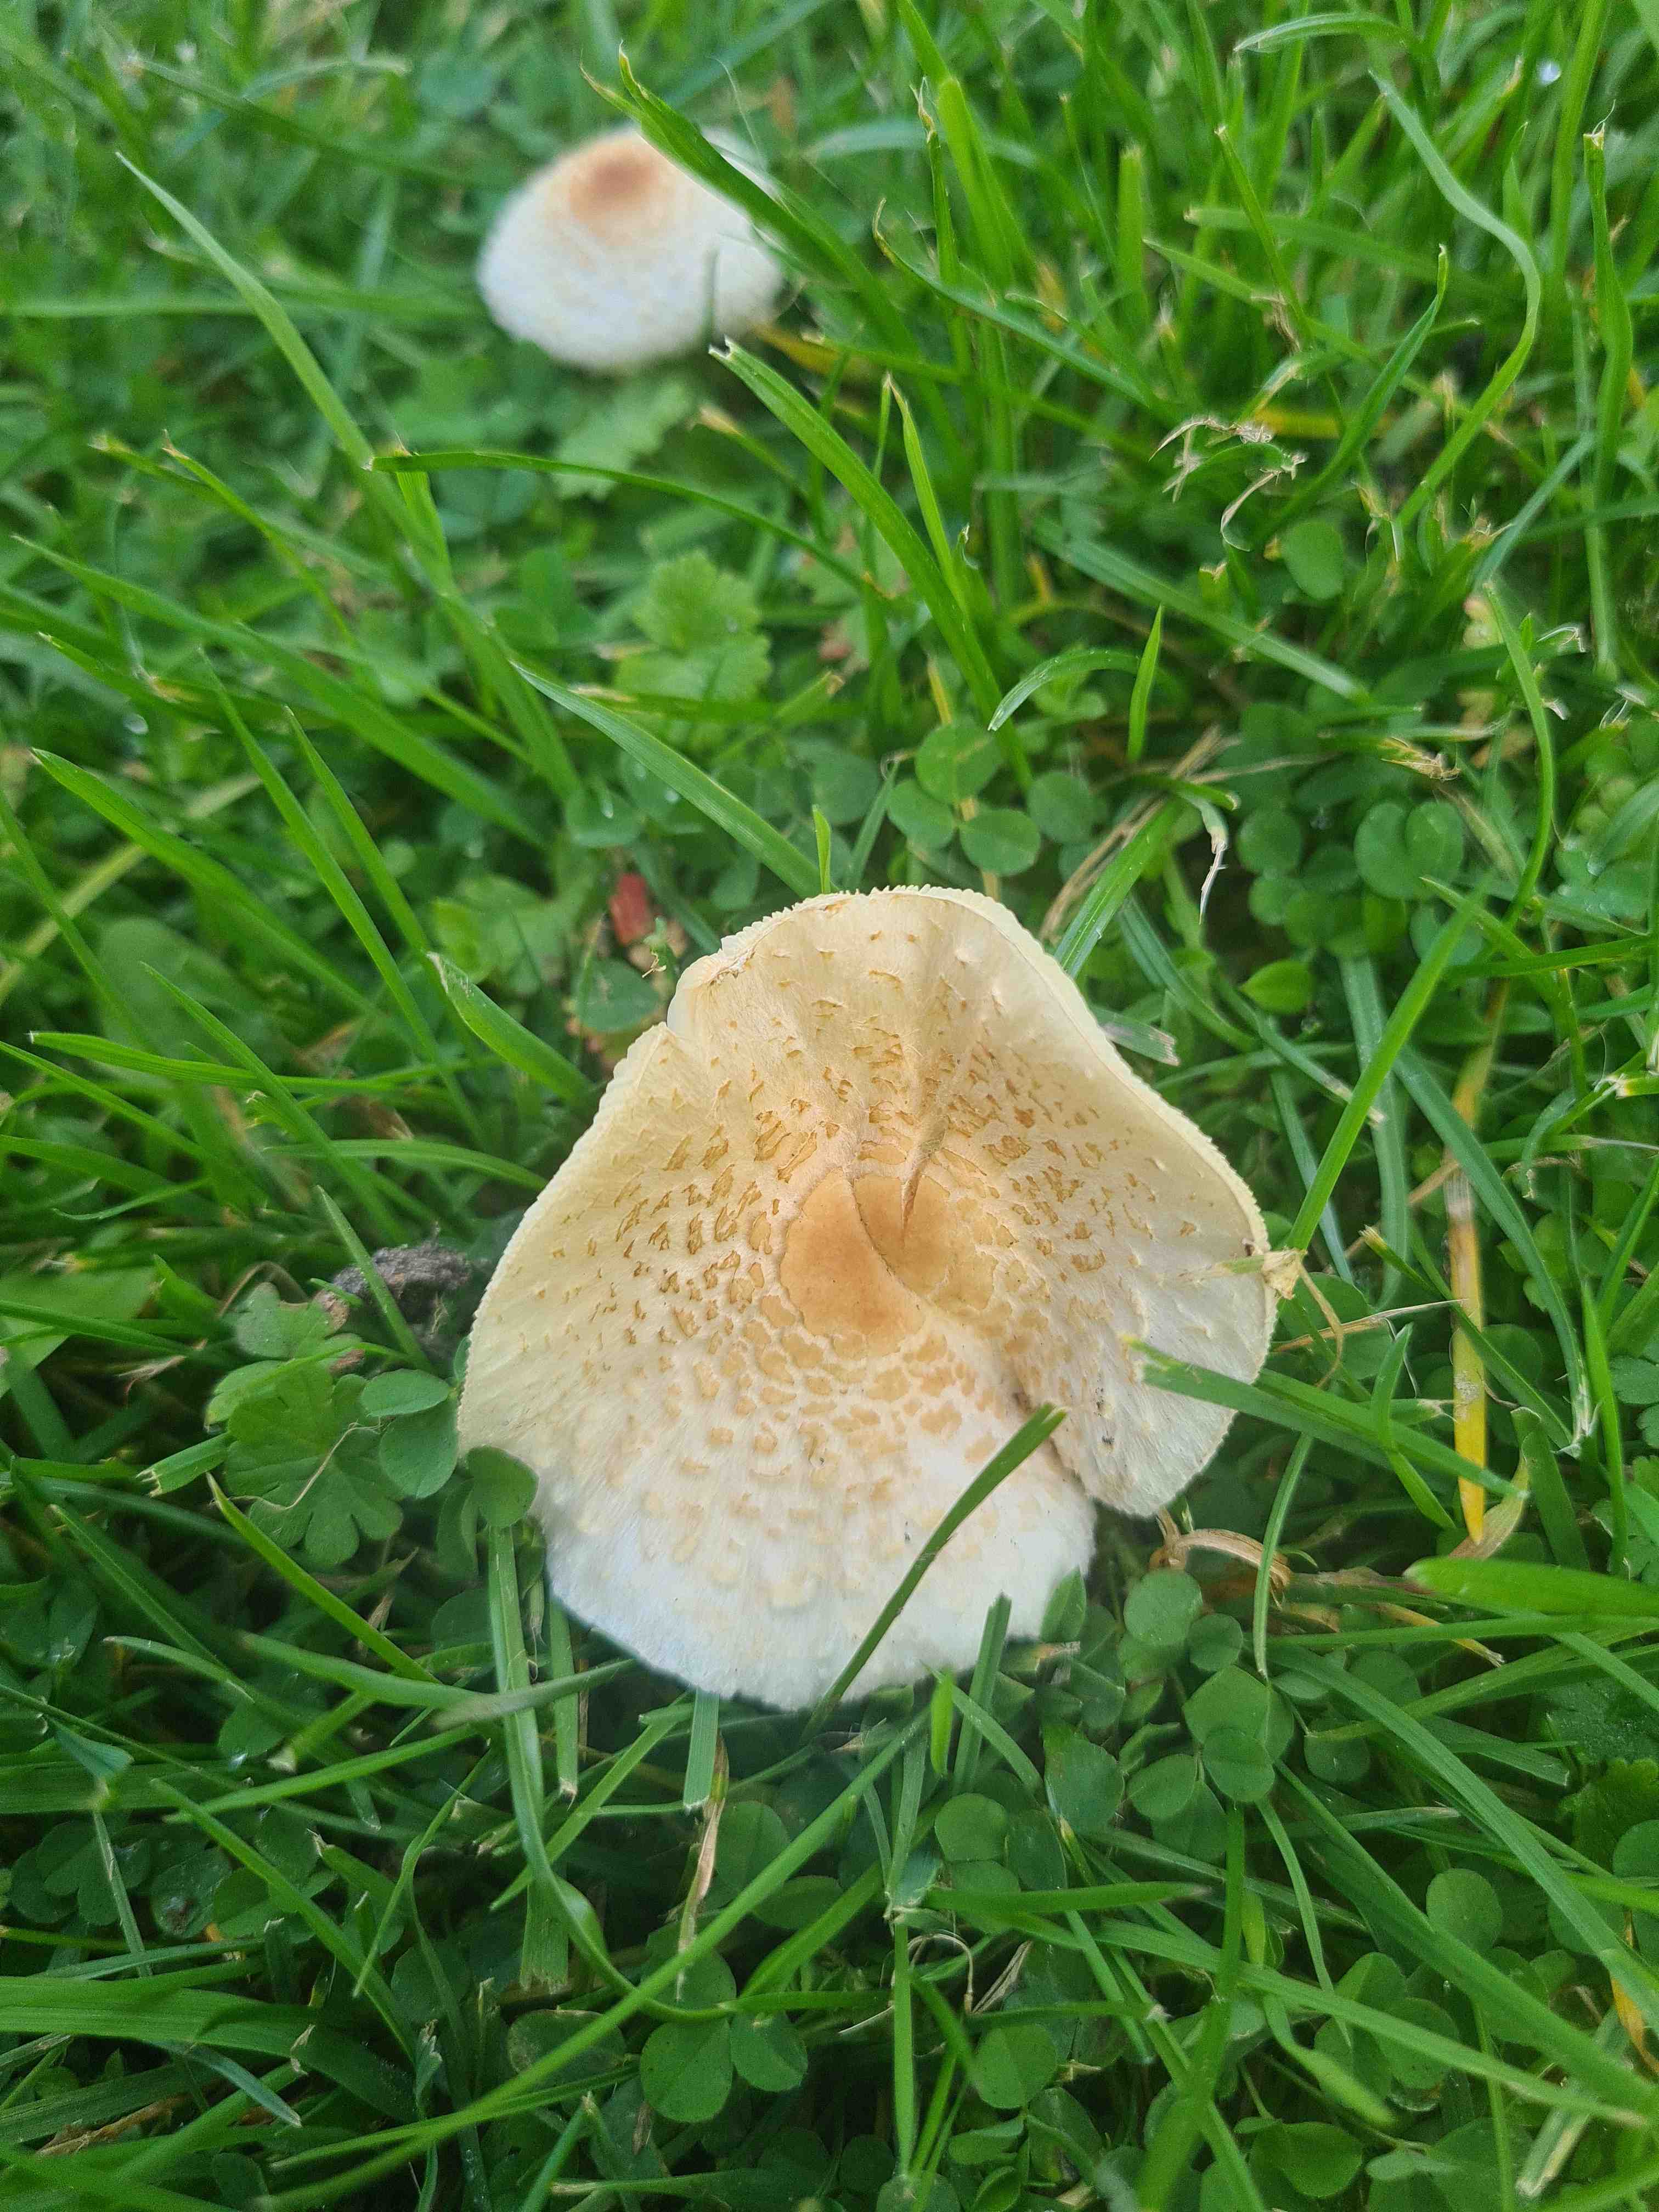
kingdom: Fungi
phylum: Basidiomycota
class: Agaricomycetes
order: Agaricales
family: Agaricaceae
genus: Lepiota
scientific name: Lepiota cristata
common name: stinkende parasolhat
